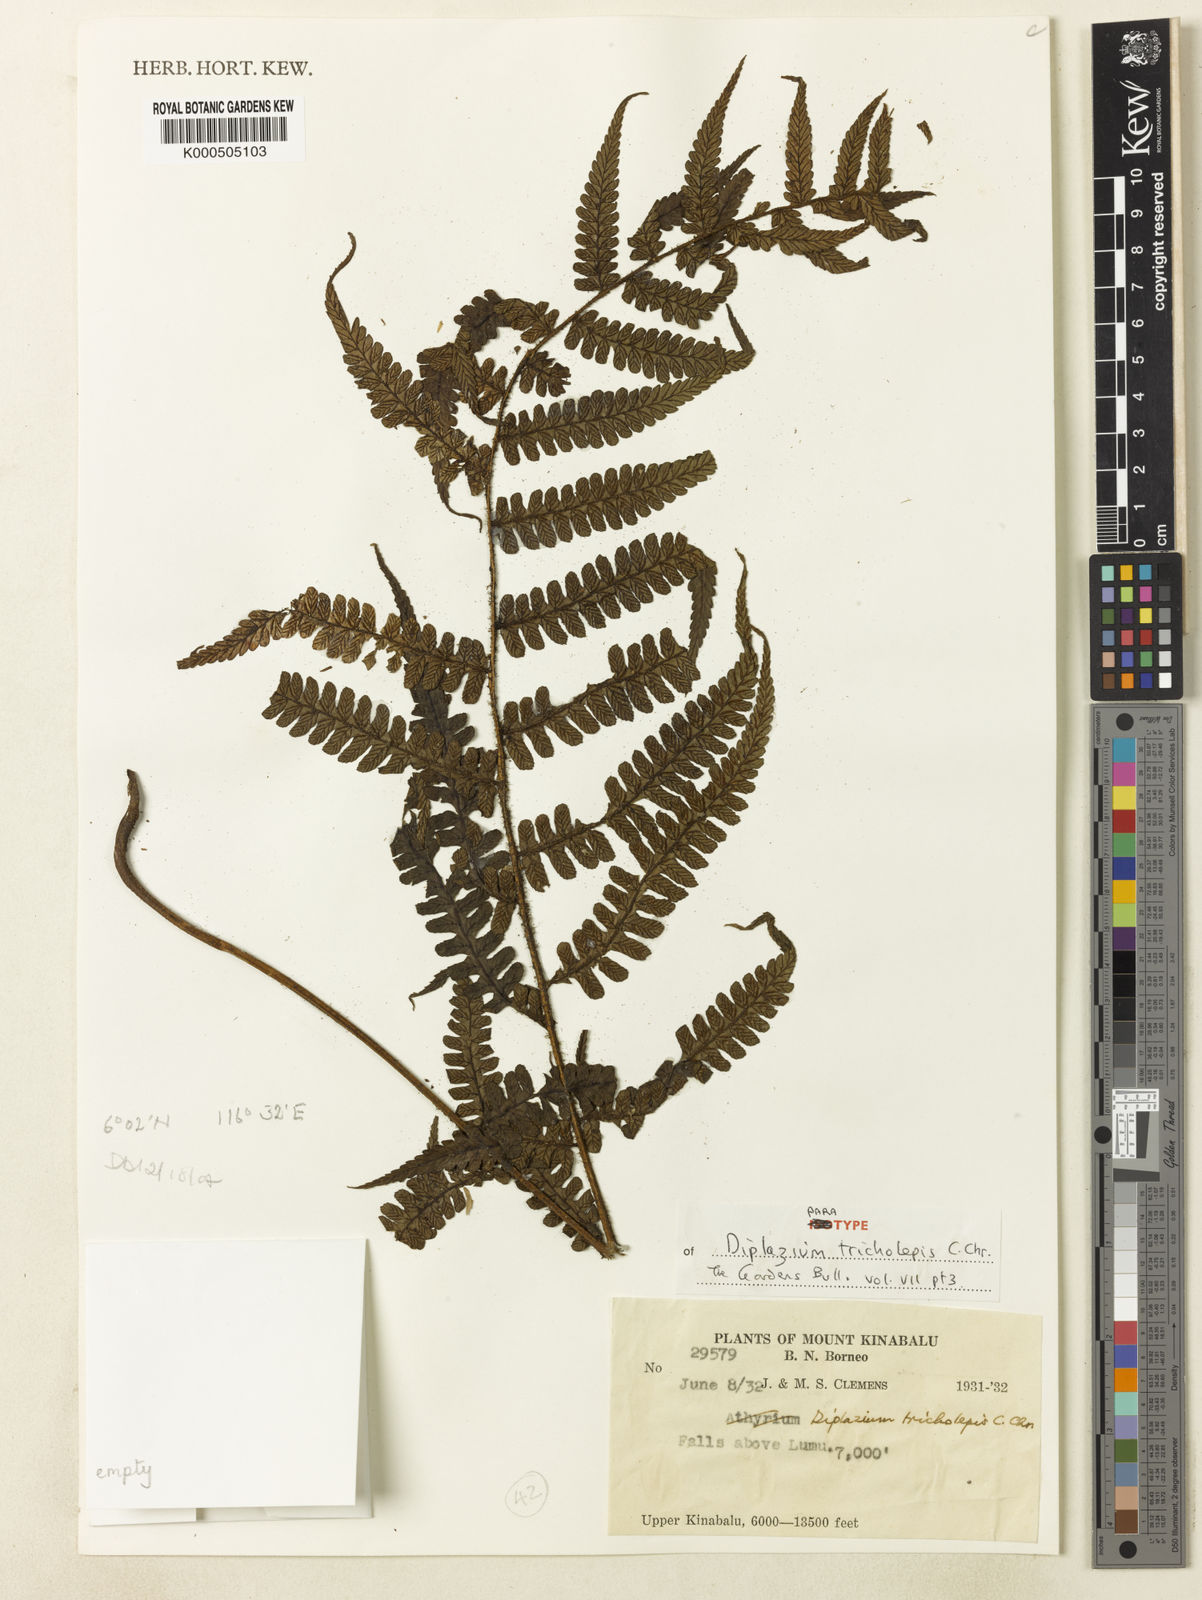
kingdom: Plantae
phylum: Tracheophyta
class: Polypodiopsida
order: Polypodiales
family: Athyriaceae
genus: Diplazium
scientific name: Diplazium tricholepis
